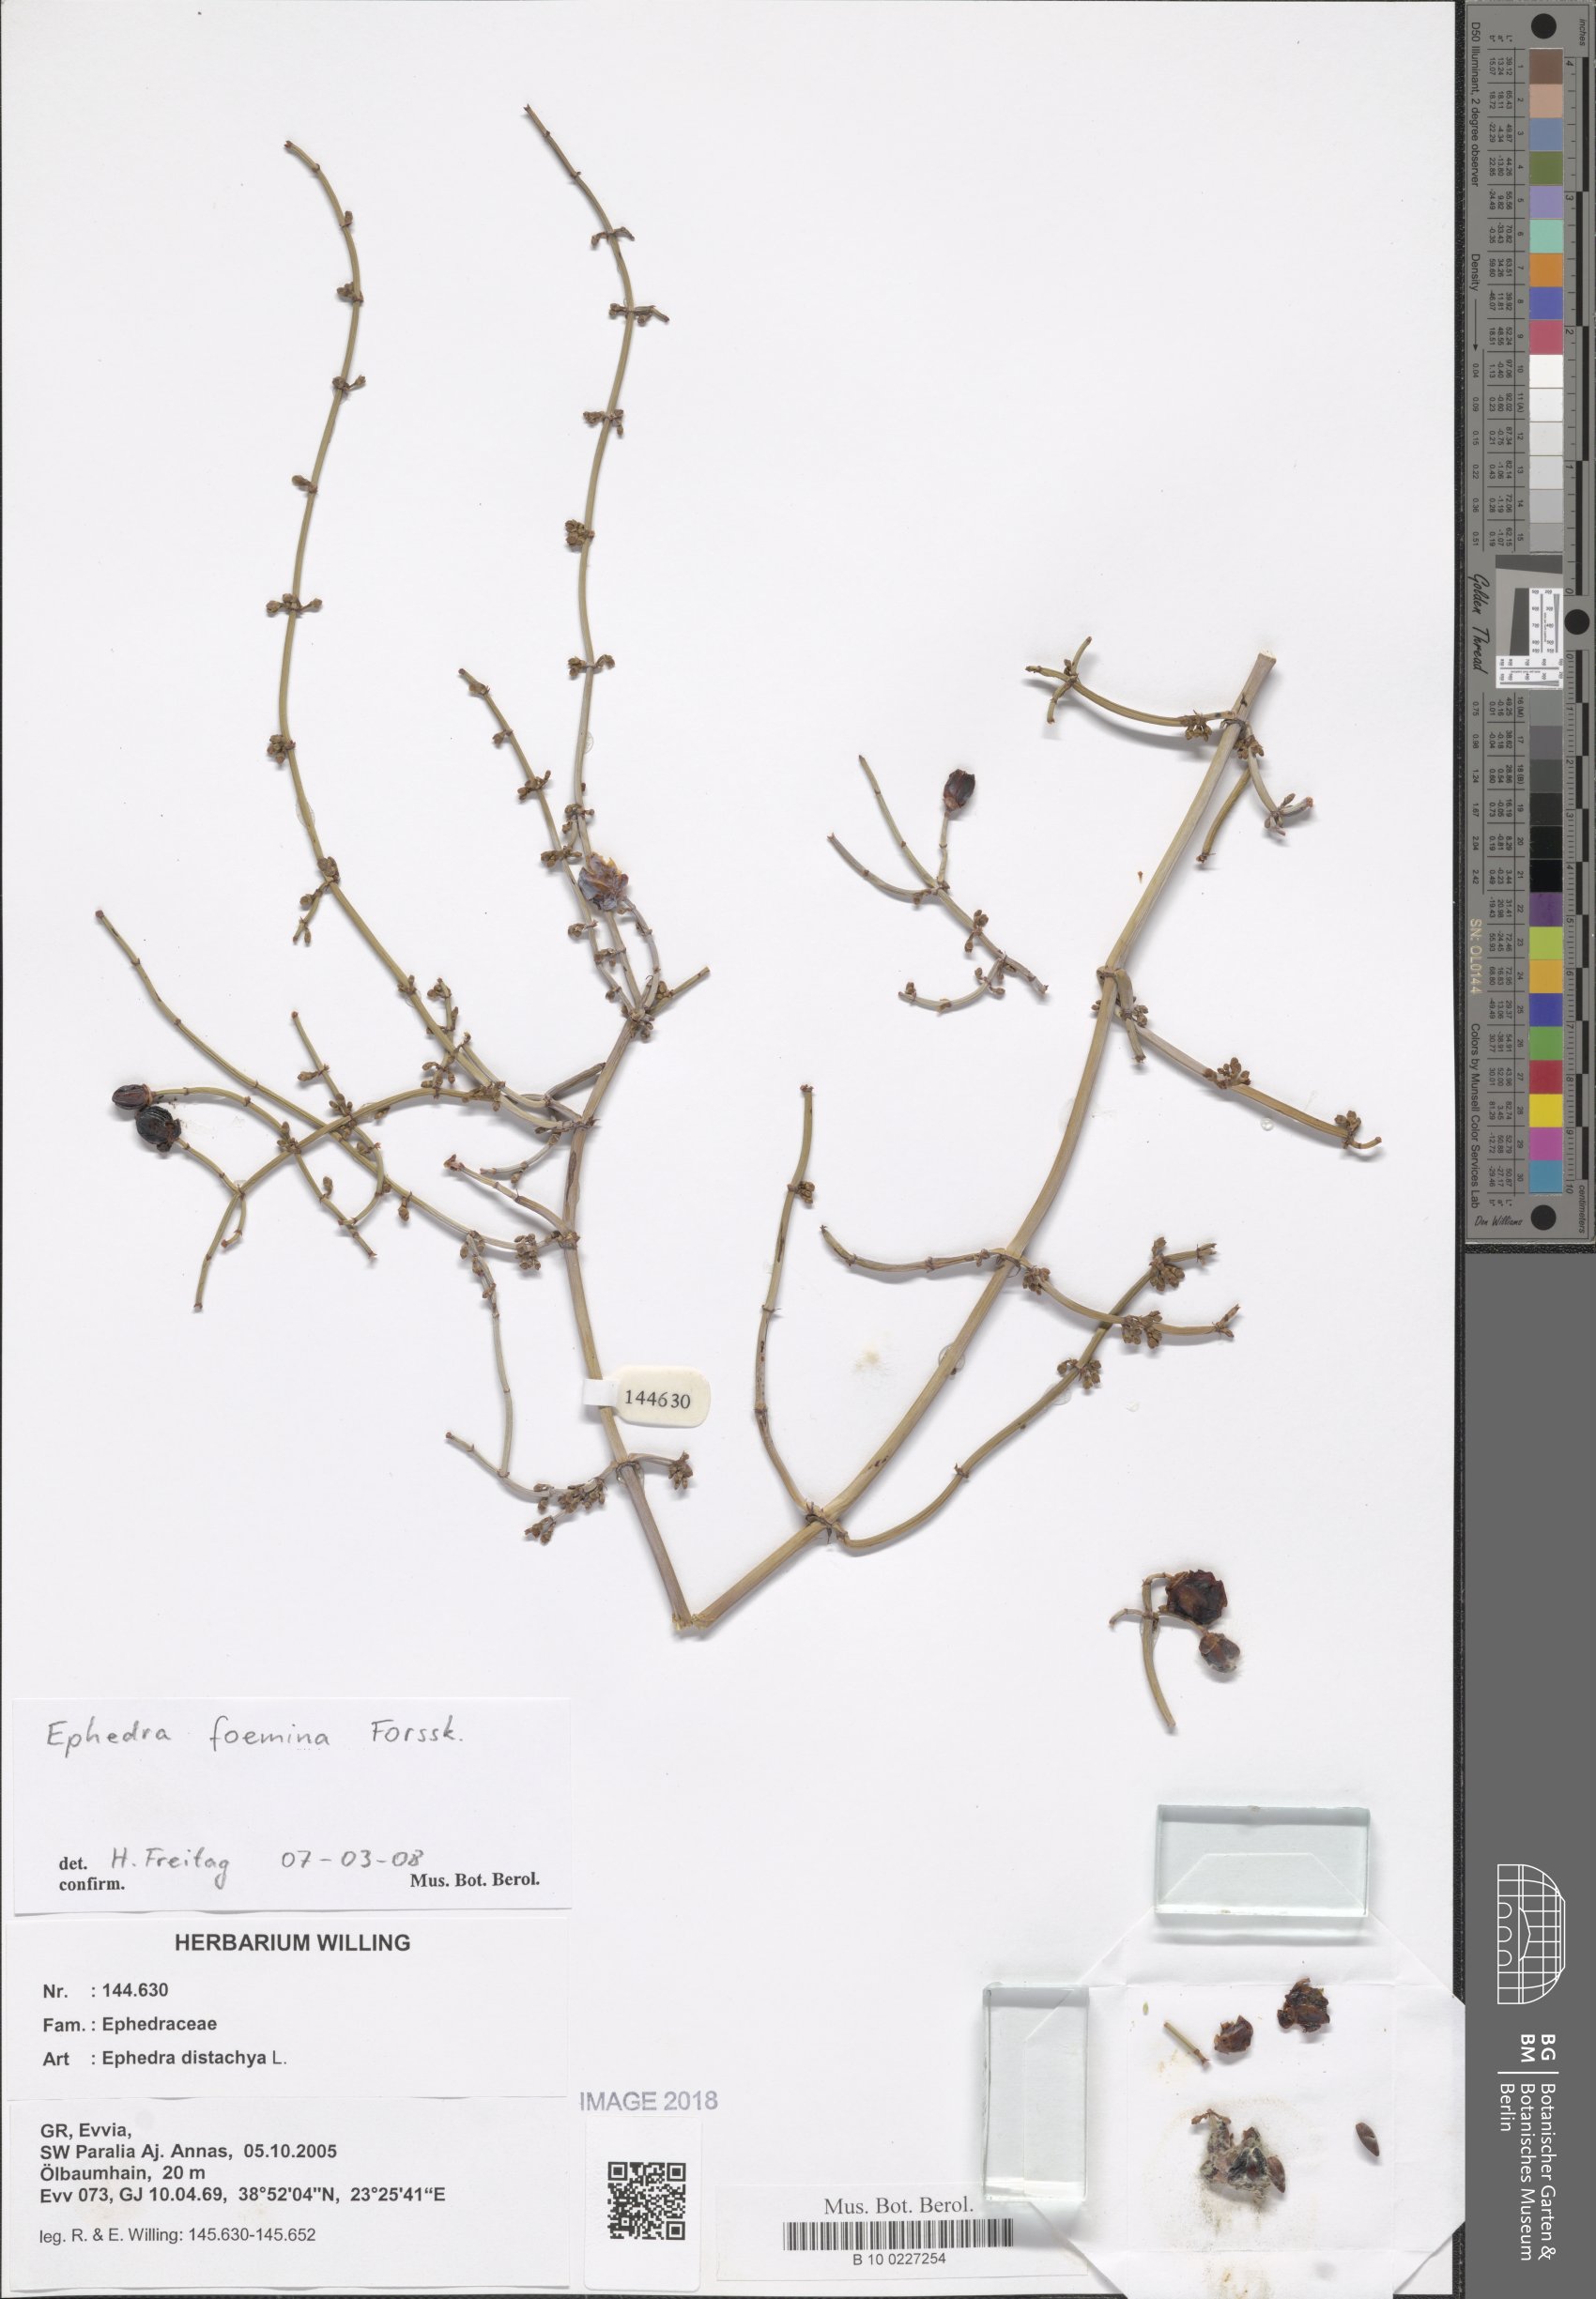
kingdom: Plantae
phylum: Tracheophyta
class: Magnoliopsida
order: Caryophyllales
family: Caryophyllaceae
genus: Silene
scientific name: Silene congesta
